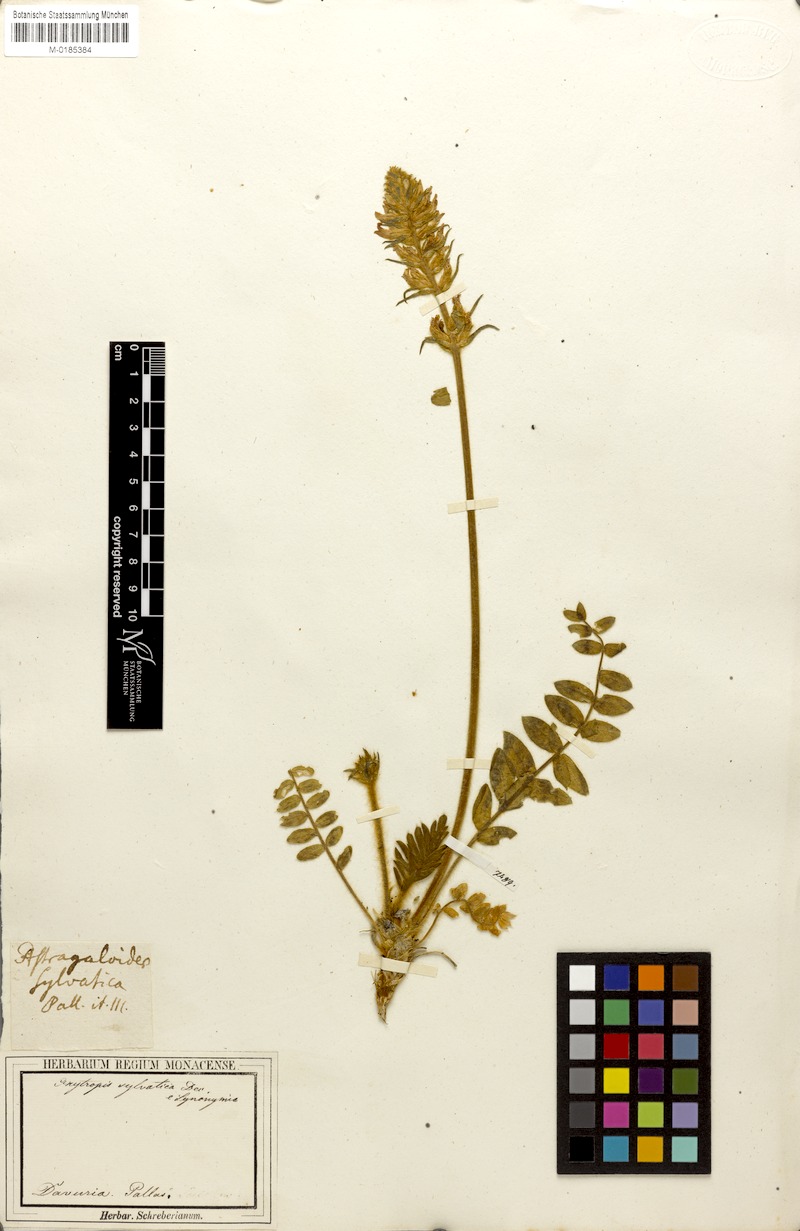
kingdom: Plantae
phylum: Tracheophyta
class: Magnoliopsida
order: Fabales
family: Fabaceae
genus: Oxytropis
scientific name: Oxytropis sylvatica
